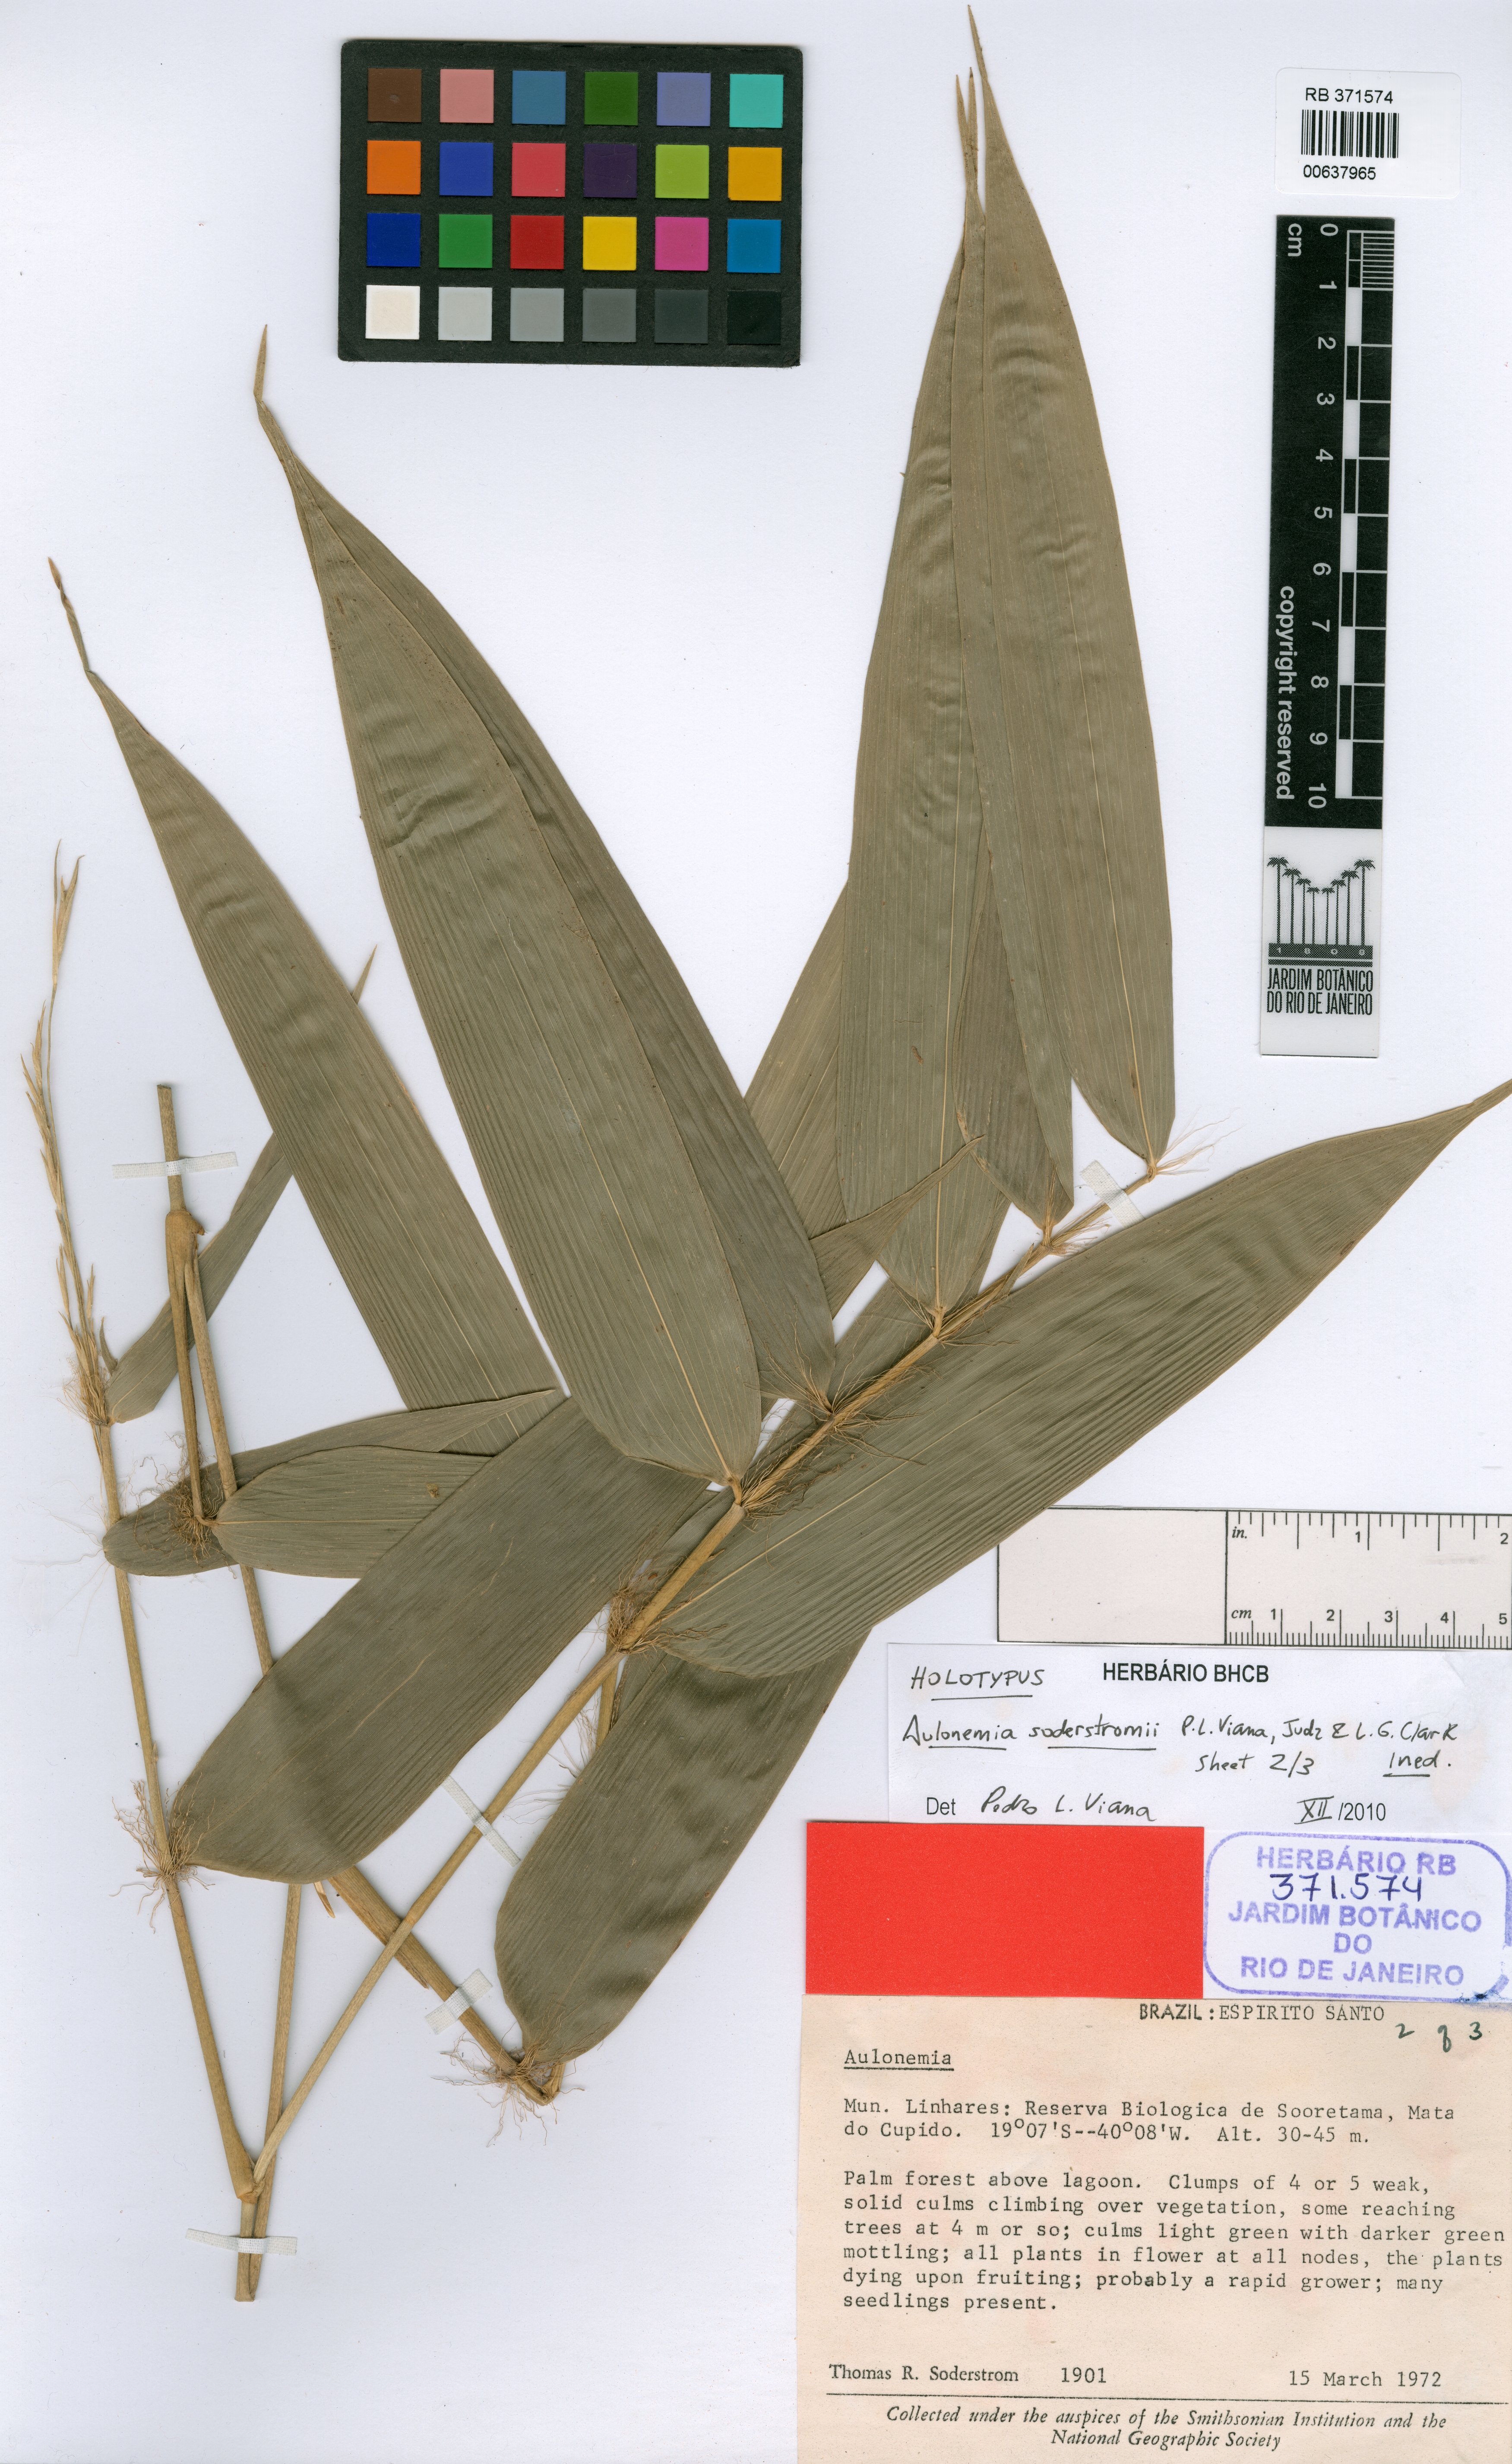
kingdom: Plantae
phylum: Tracheophyta
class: Liliopsida
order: Poales
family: Poaceae
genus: Aulonemia
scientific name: Aulonemia soderstromii
